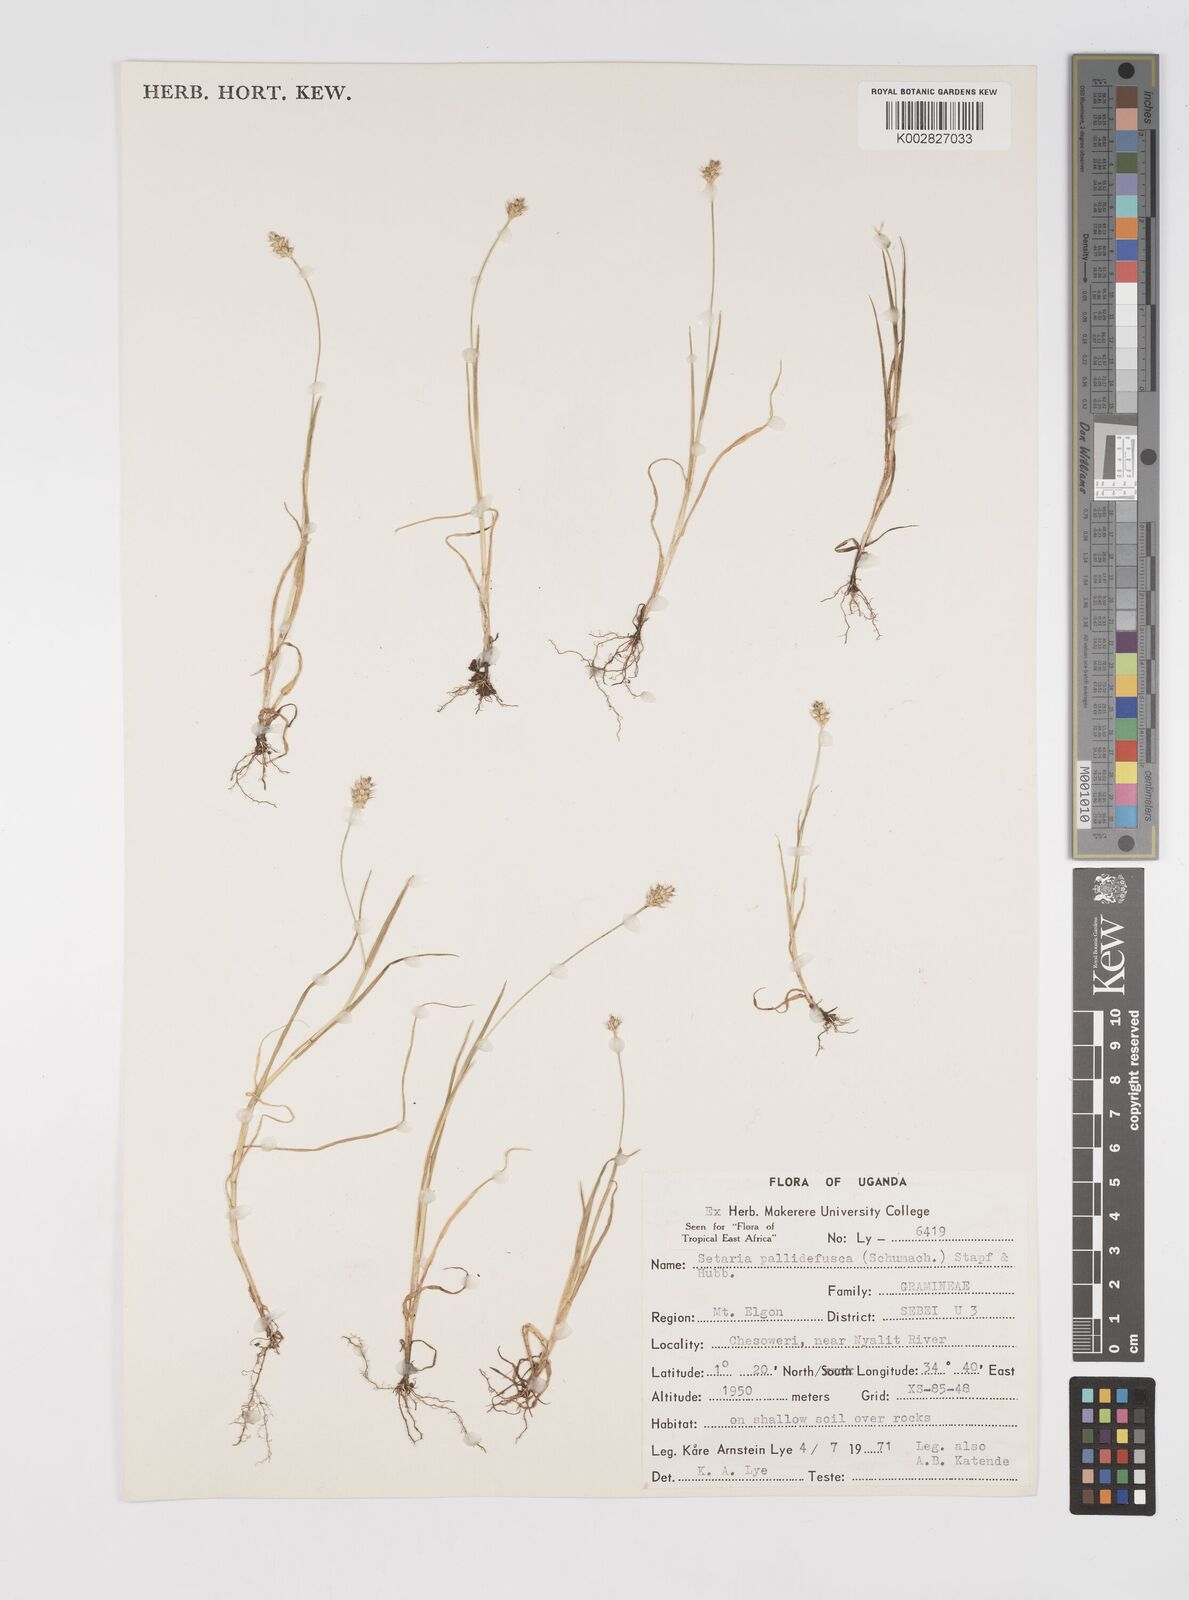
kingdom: Plantae
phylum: Tracheophyta
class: Liliopsida
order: Poales
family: Poaceae
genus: Setaria
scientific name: Setaria pumila
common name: Yellow bristle-grass
